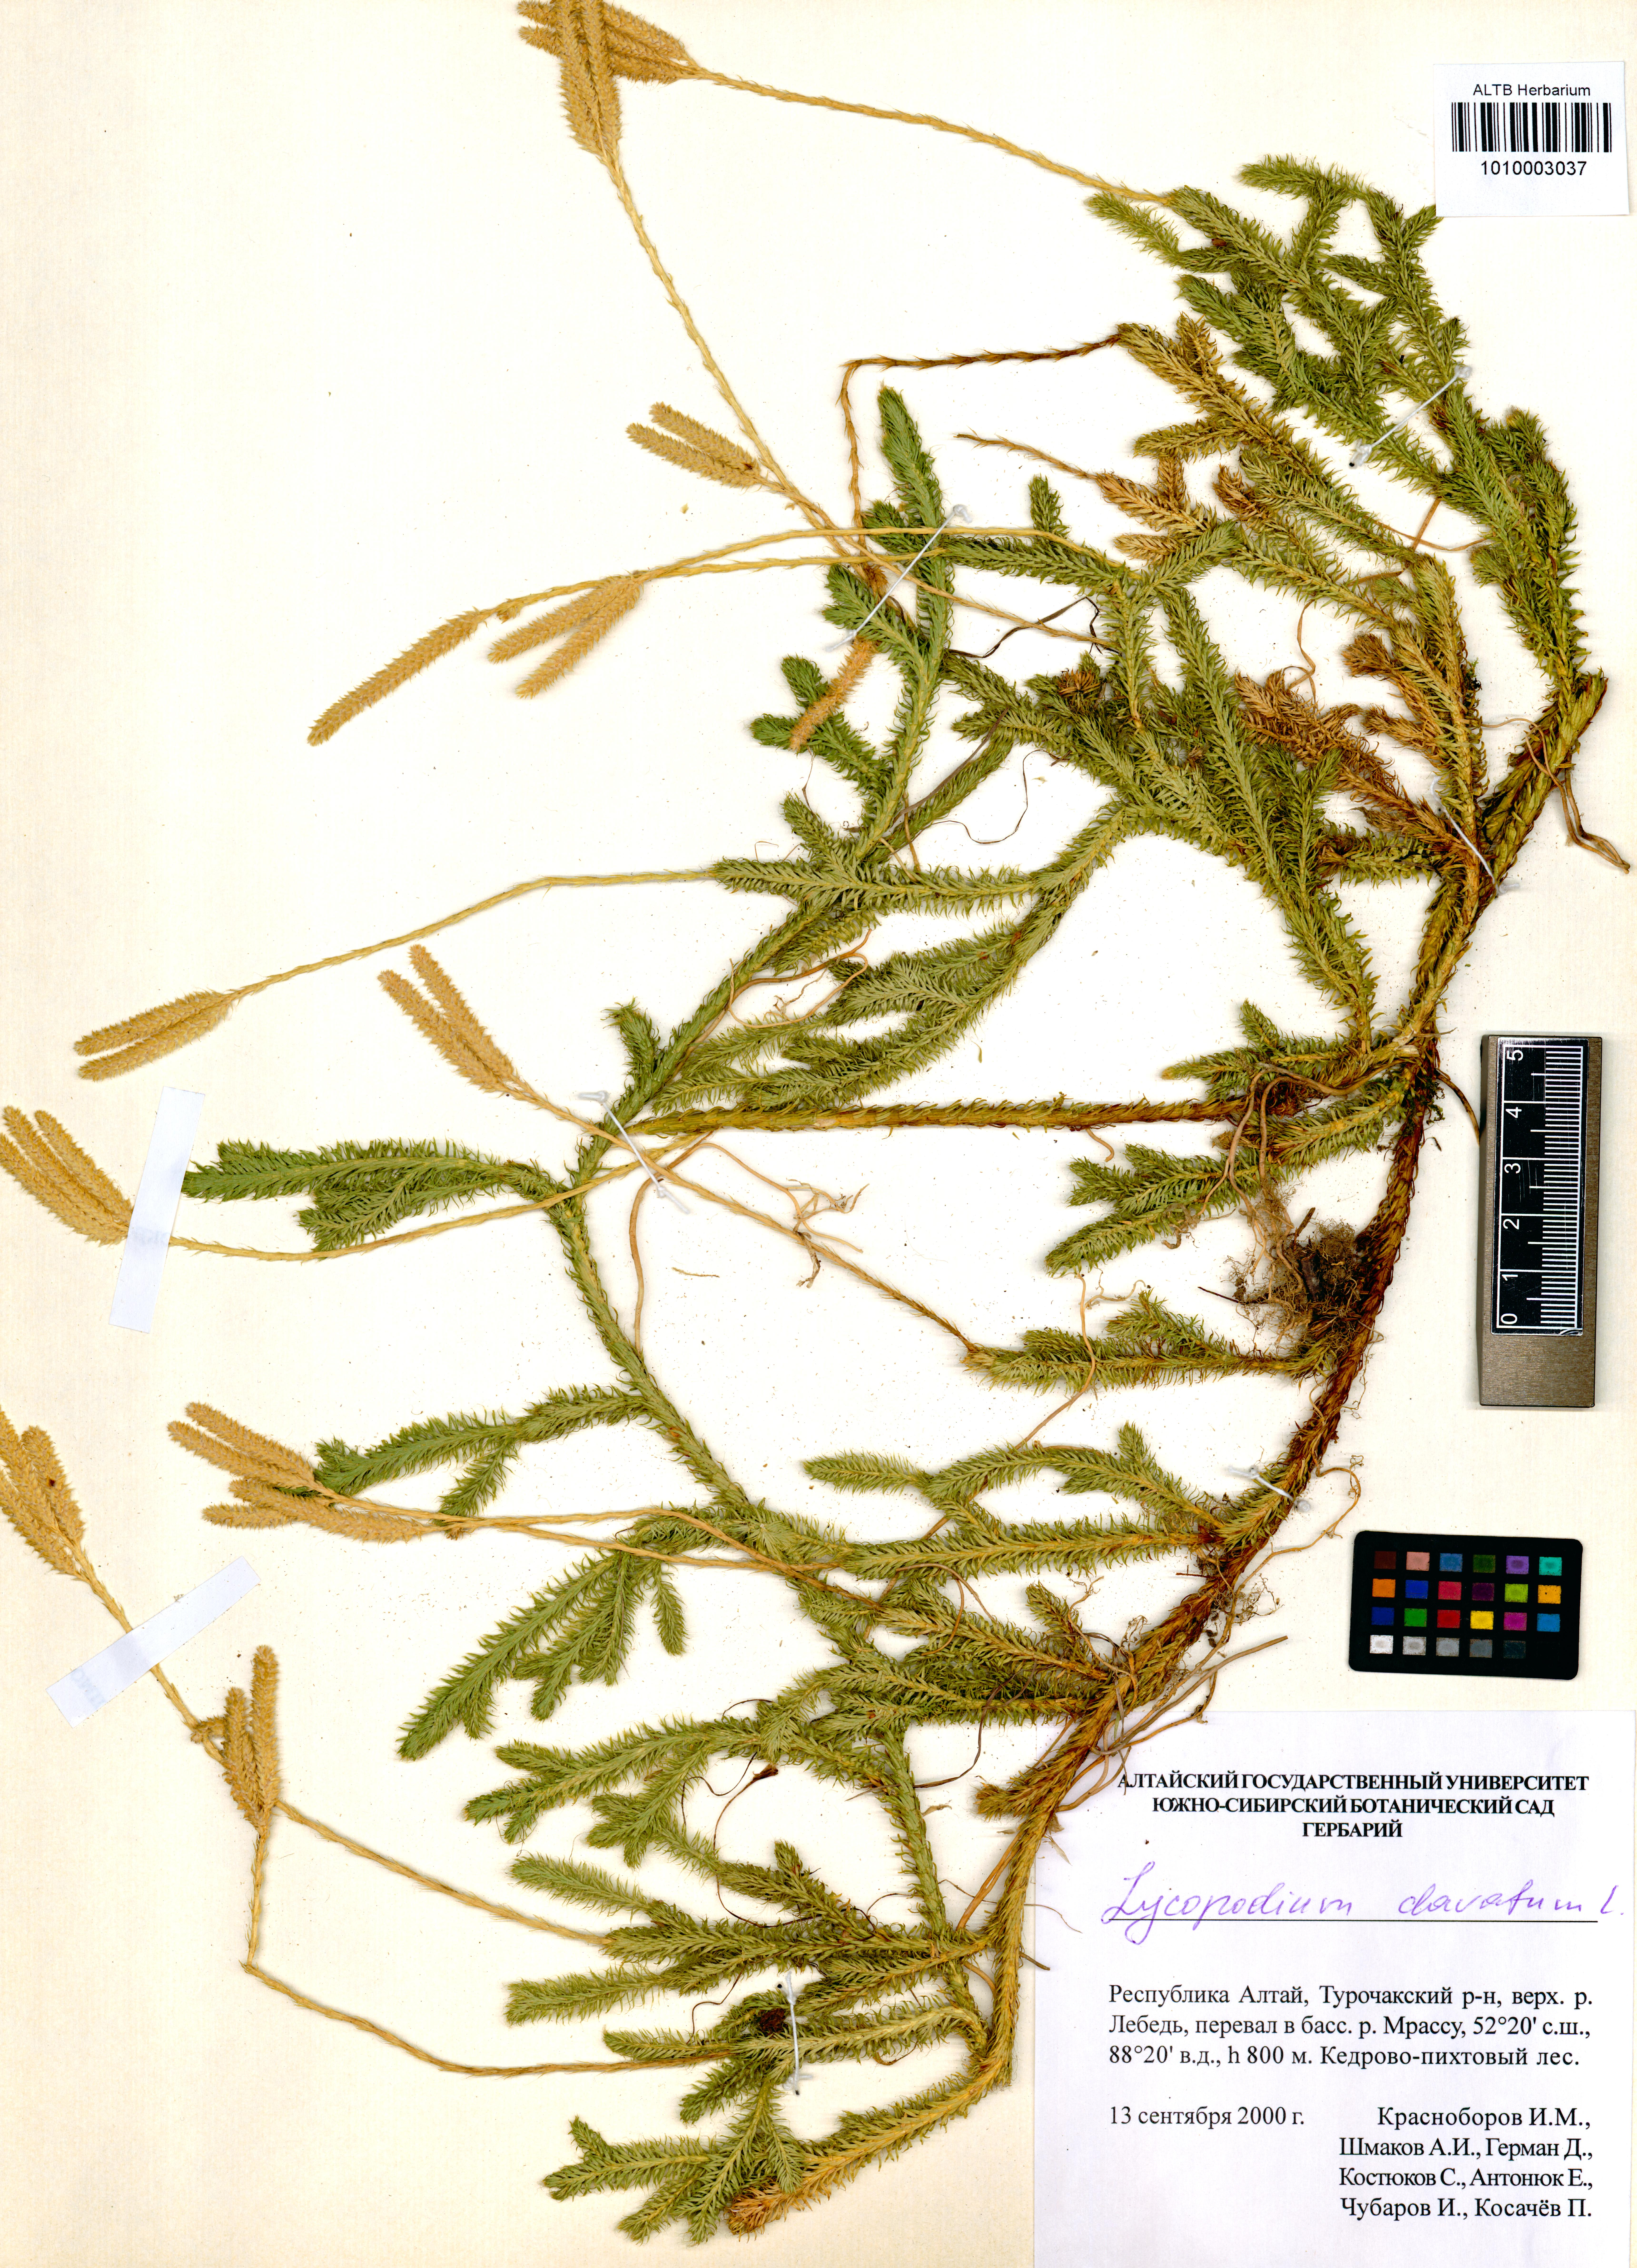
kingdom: Plantae
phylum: Tracheophyta
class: Lycopodiopsida
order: Lycopodiales
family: Lycopodiaceae
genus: Lycopodium
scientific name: Lycopodium clavatum
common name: Stag's-horn clubmoss
